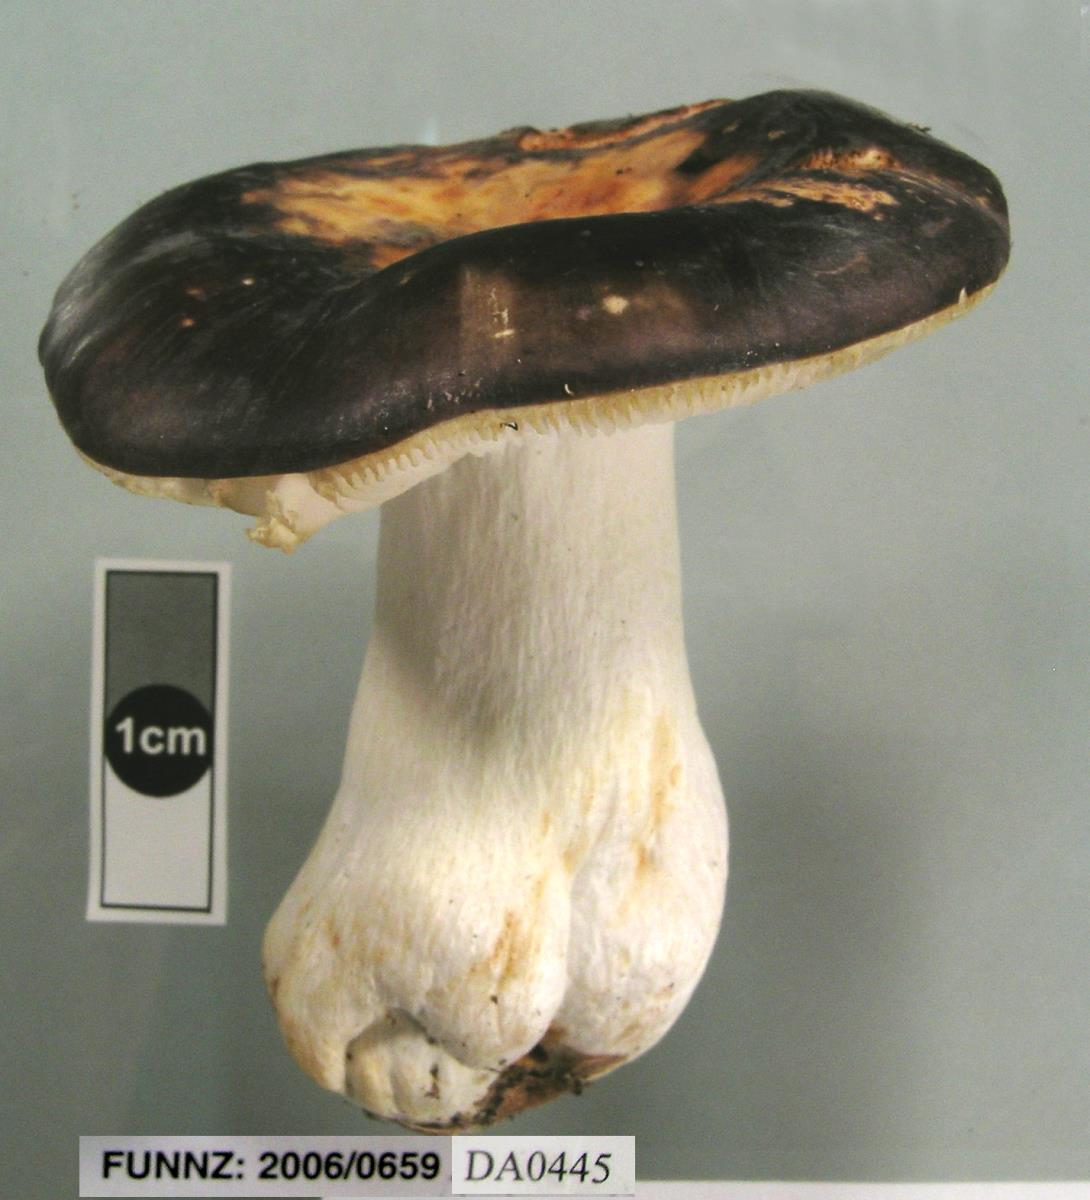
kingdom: Fungi
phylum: Basidiomycota
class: Agaricomycetes
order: Russulales
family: Russulaceae
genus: Russula
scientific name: Russula umerensis
